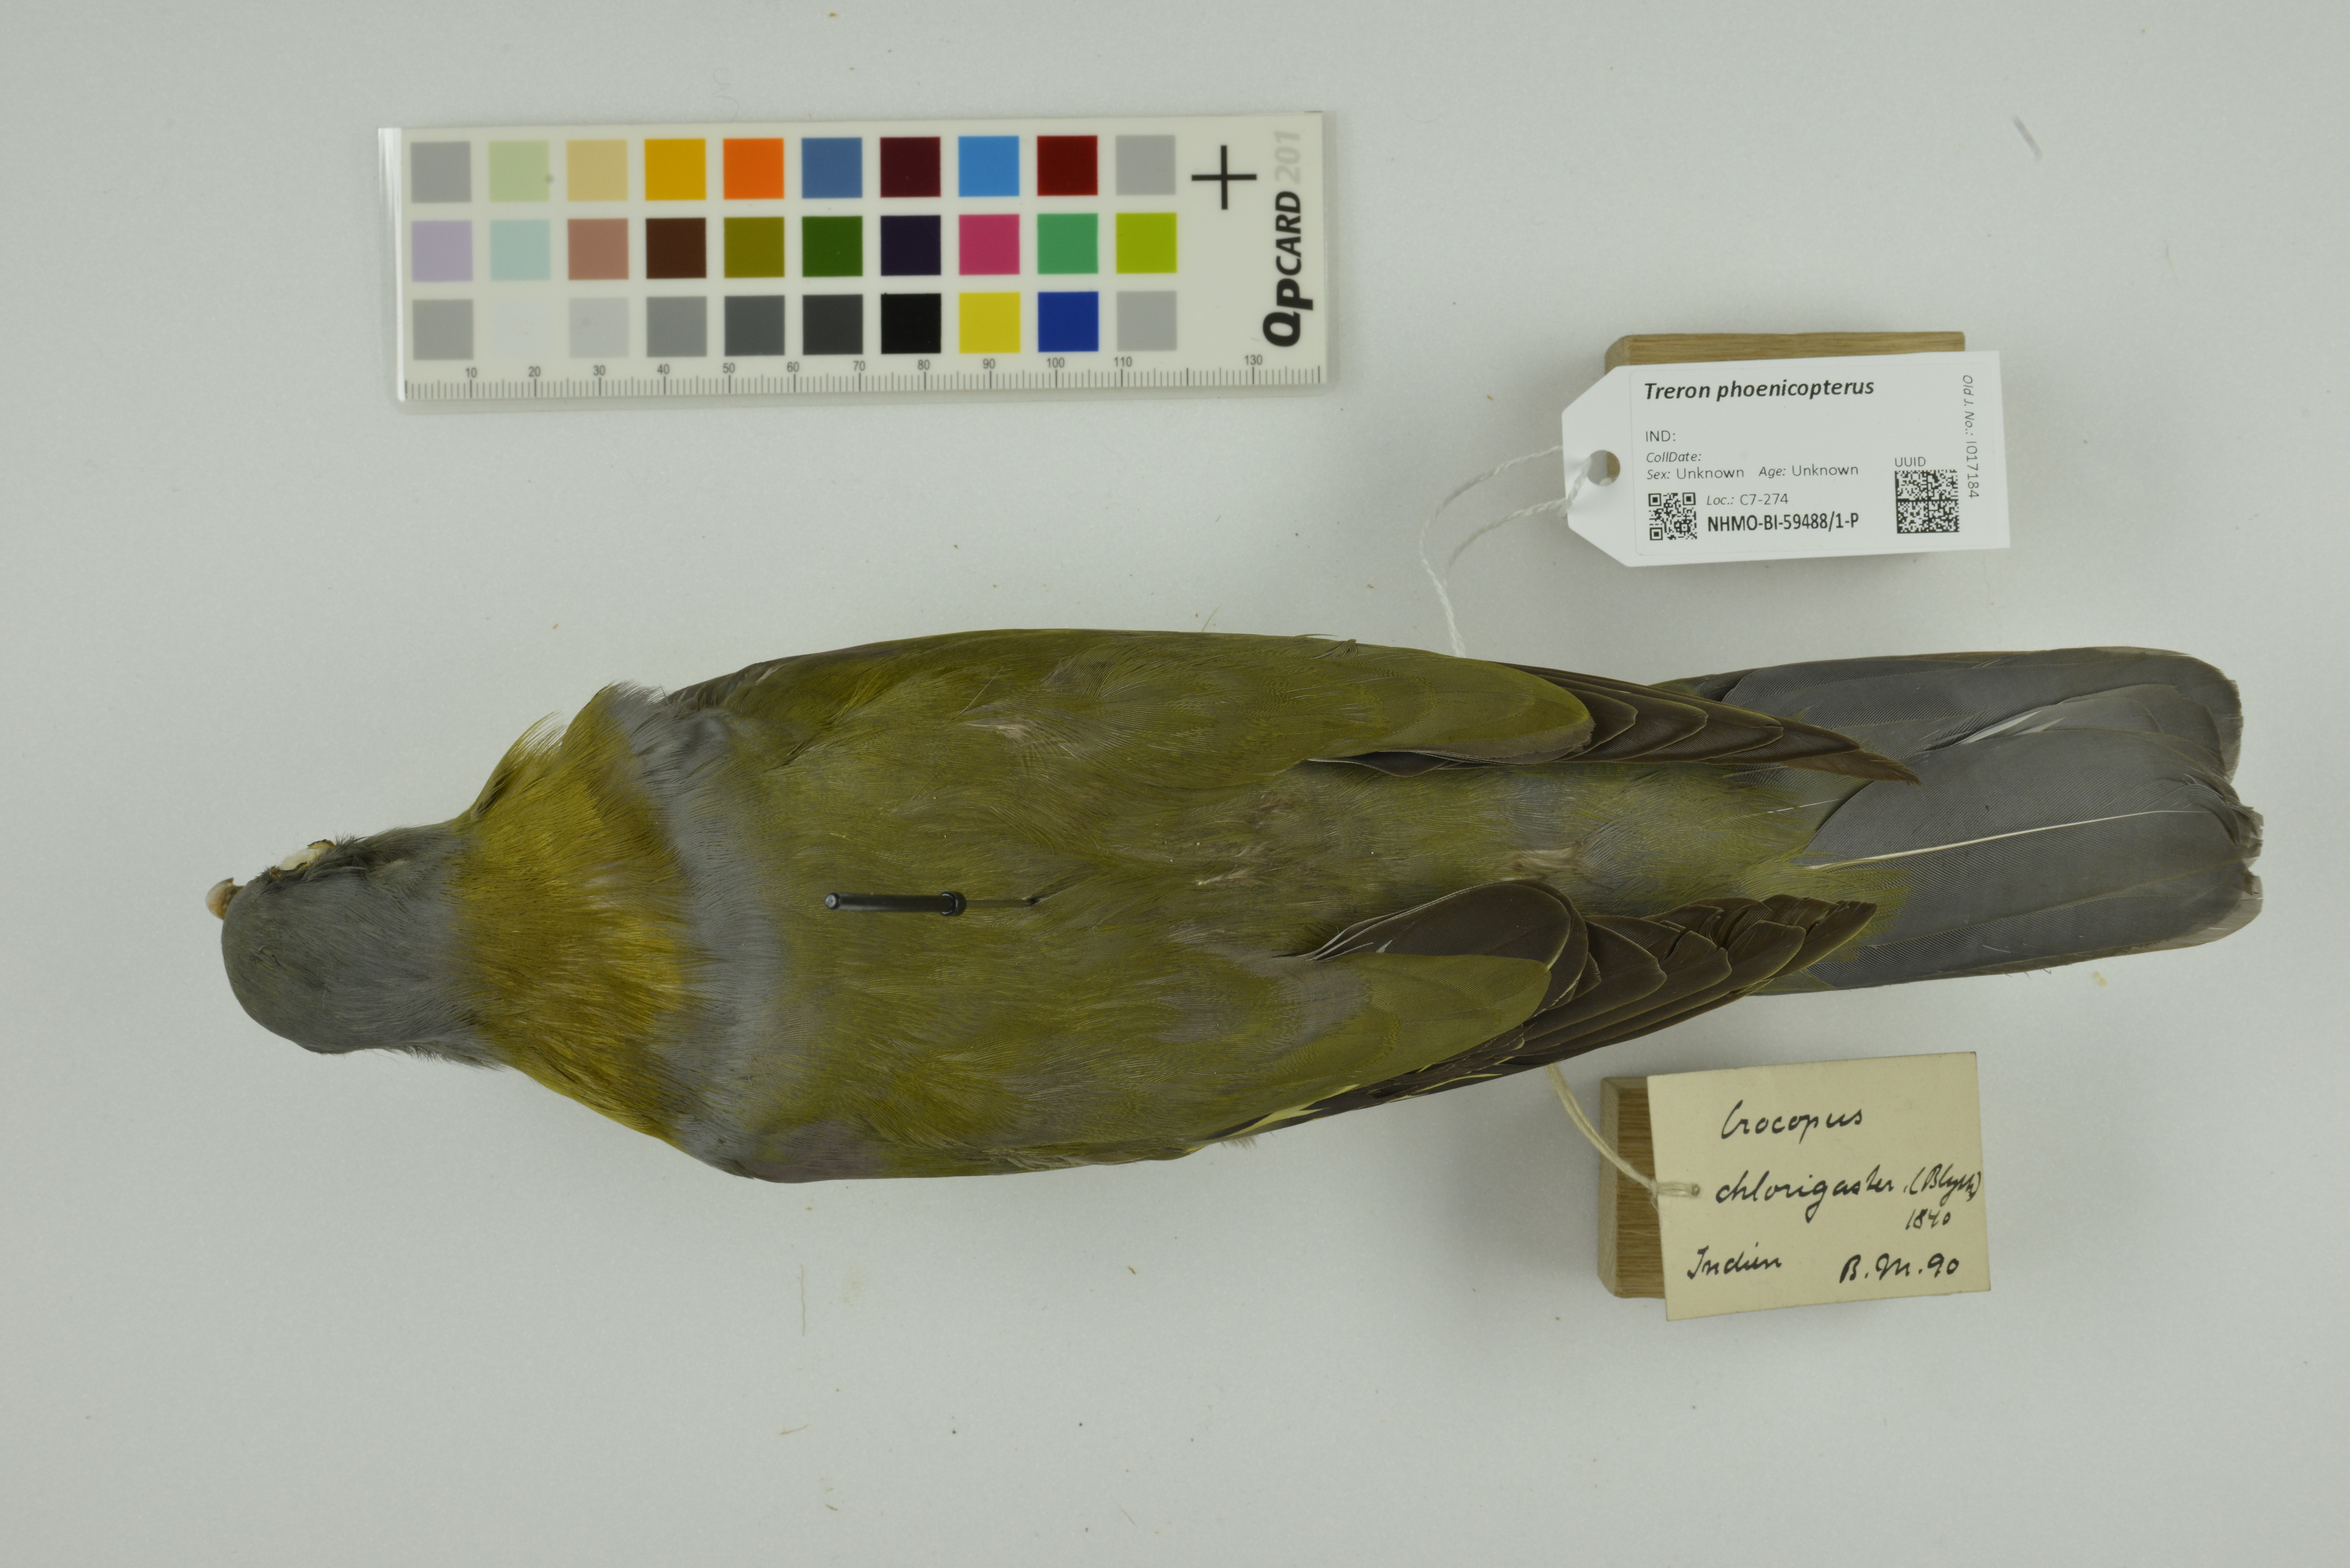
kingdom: Animalia
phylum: Chordata
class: Aves
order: Columbiformes
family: Columbidae
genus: Treron
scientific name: Treron phoenicopterus
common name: Yellow-footed green pigeon
